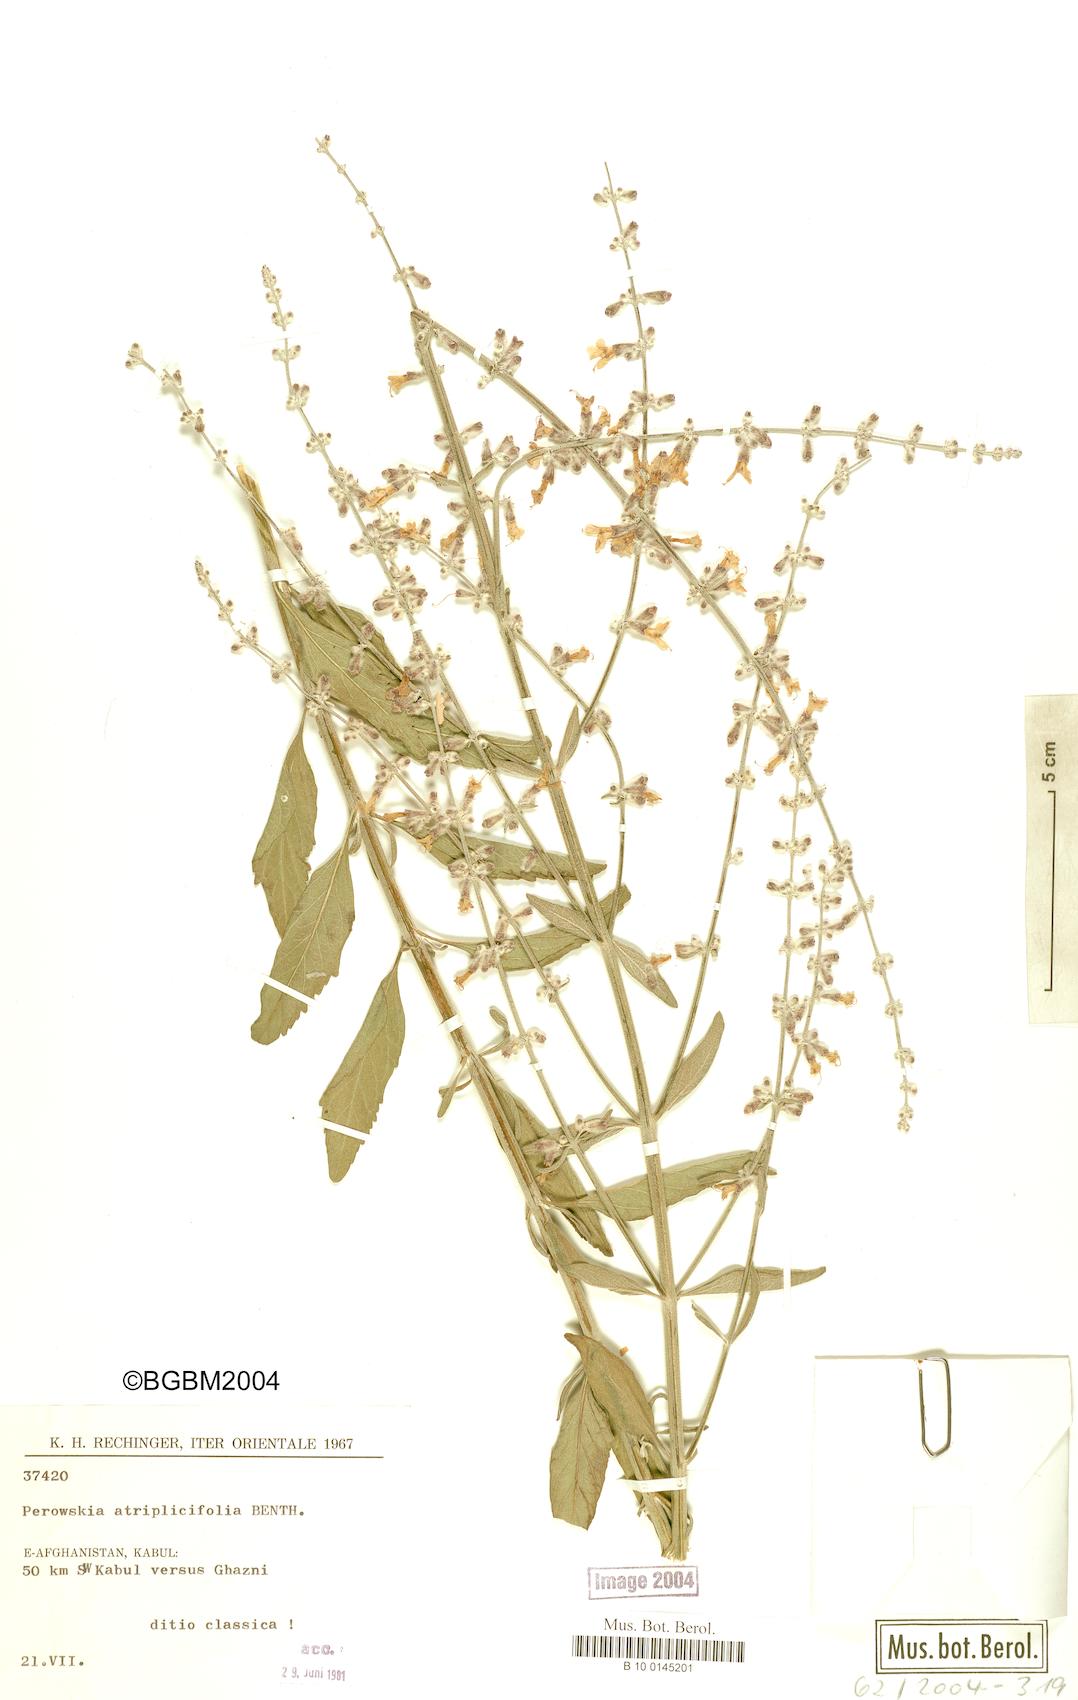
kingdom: Plantae
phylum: Tracheophyta
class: Magnoliopsida
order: Lamiales
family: Lamiaceae
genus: Salvia
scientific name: Salvia yangii
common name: Russian sage
